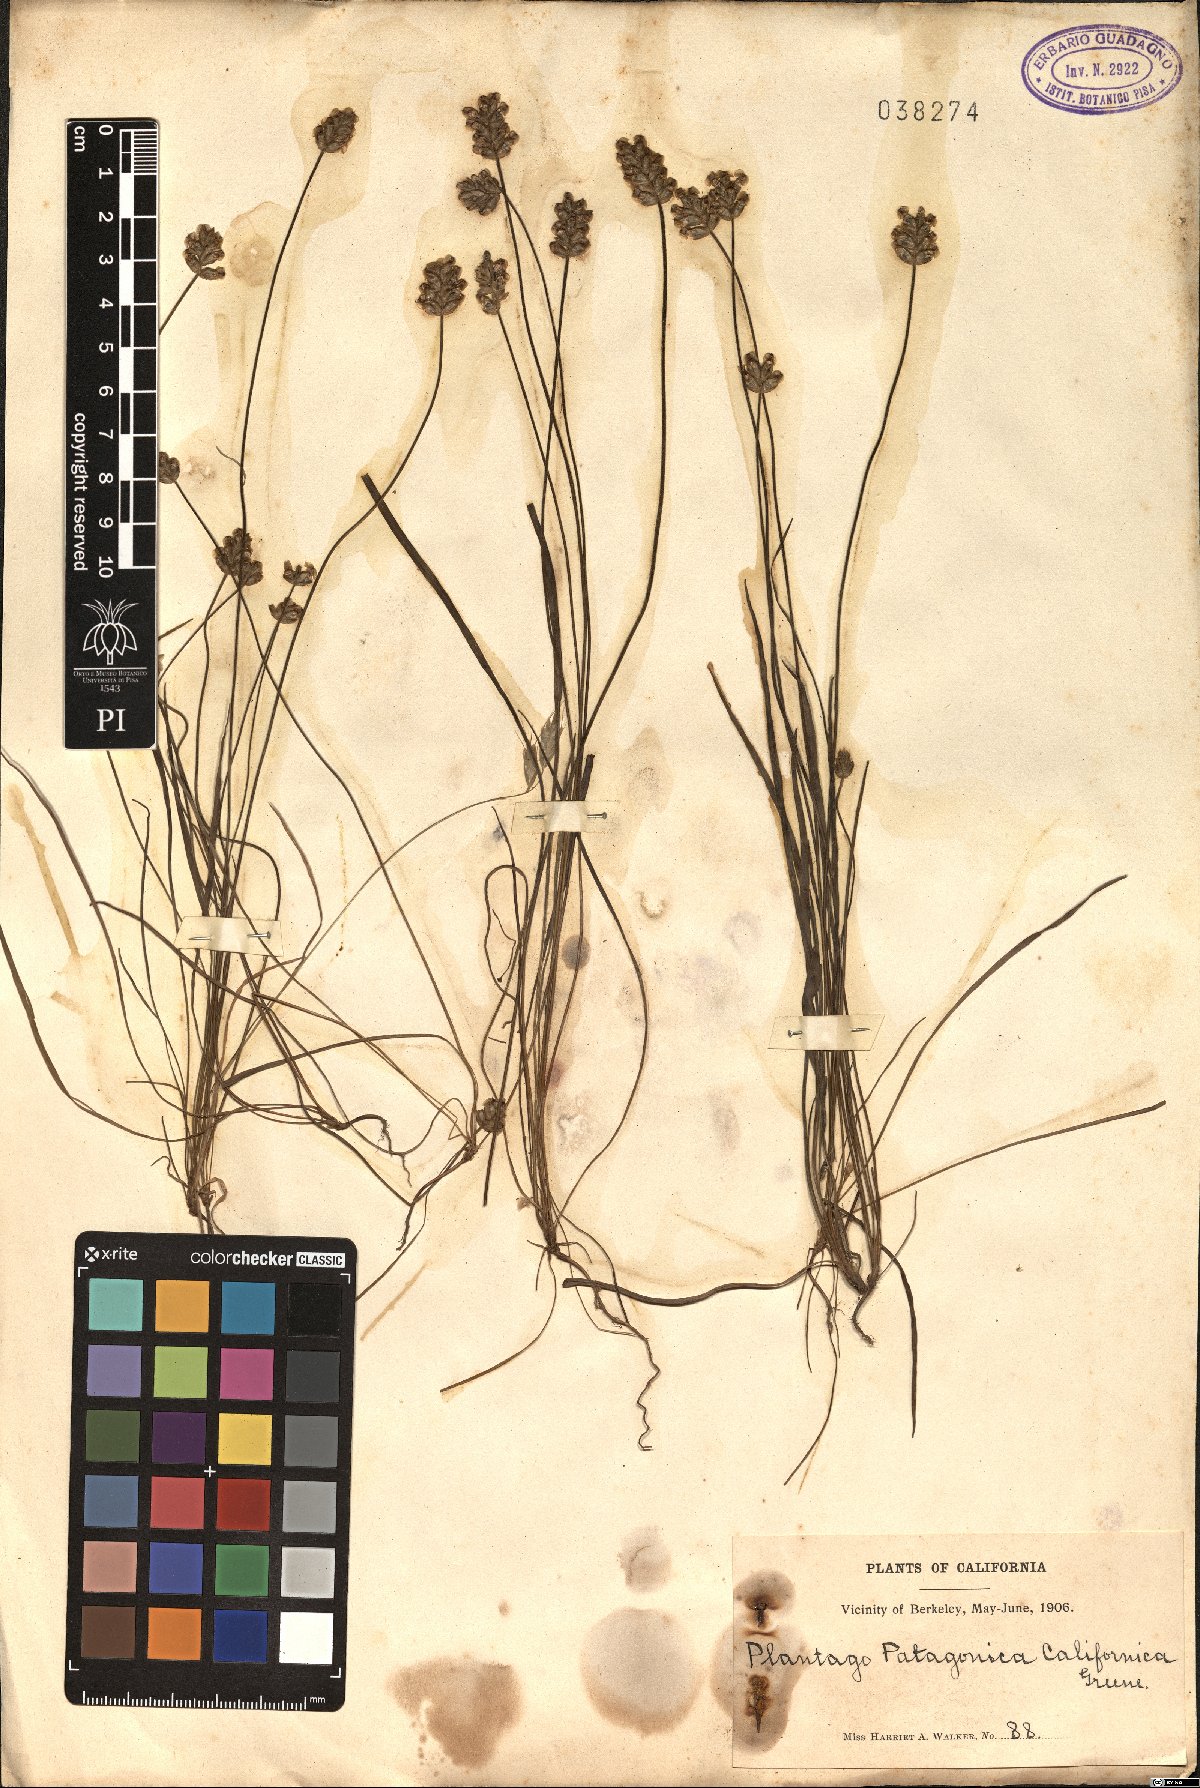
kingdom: Plantae
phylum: Tracheophyta
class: Magnoliopsida
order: Lamiales
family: Plantaginaceae
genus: Plantago
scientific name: Plantago patagonica
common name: Patagonia indian-wheat
